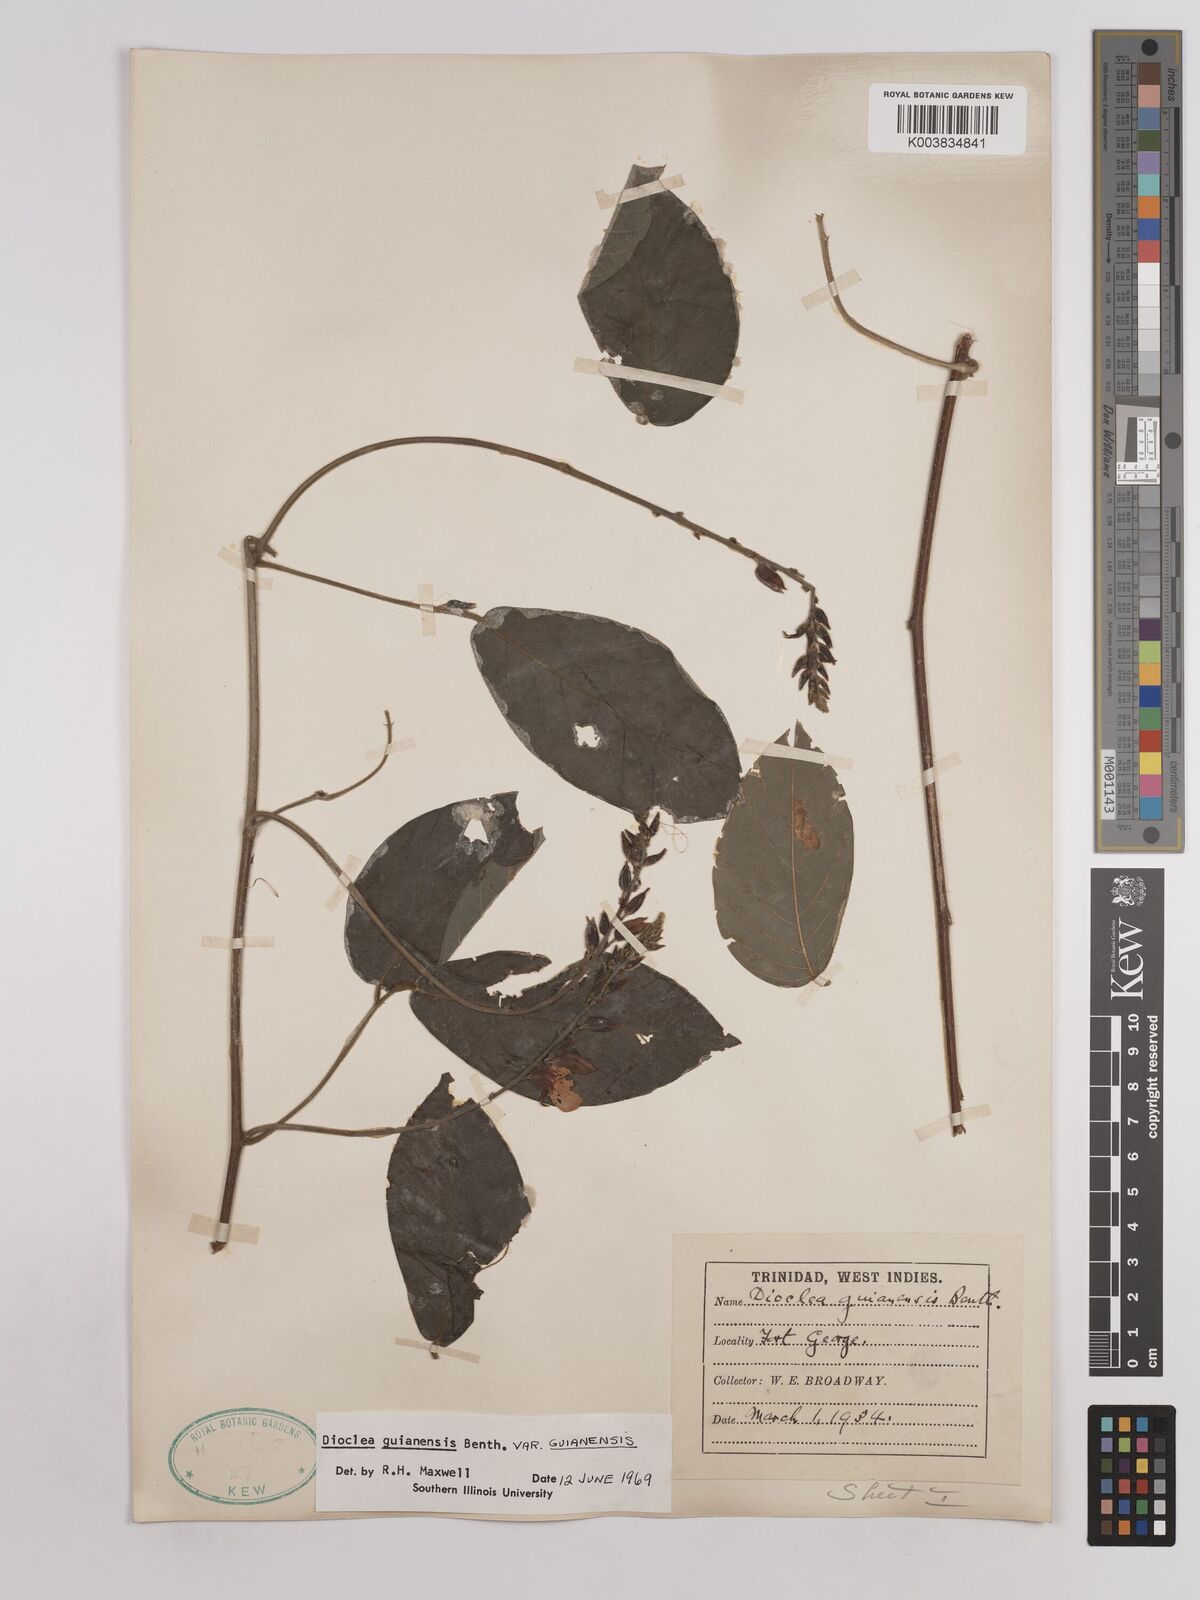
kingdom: Plantae
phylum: Tracheophyta
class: Magnoliopsida
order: Fabales
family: Fabaceae
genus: Dioclea
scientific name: Dioclea guianensis
